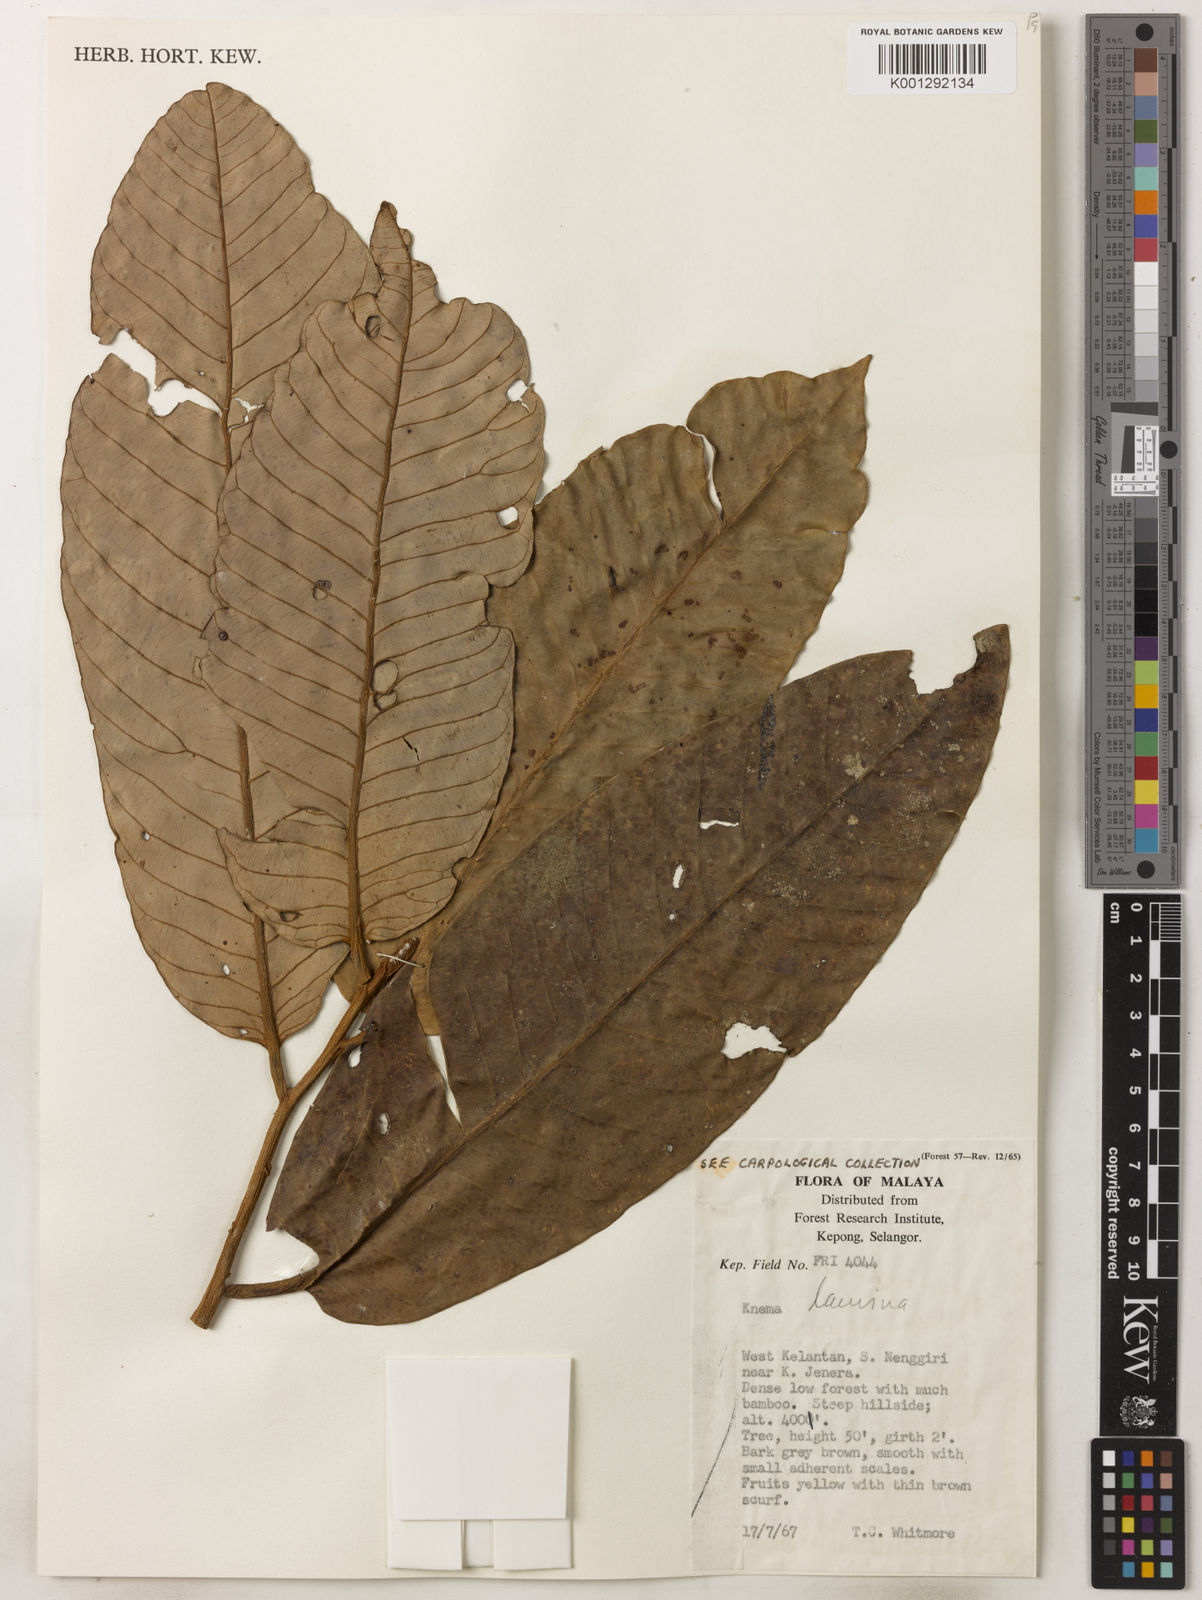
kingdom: Plantae
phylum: Tracheophyta
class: Magnoliopsida
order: Magnoliales
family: Myristicaceae
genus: Knema
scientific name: Knema laurina
